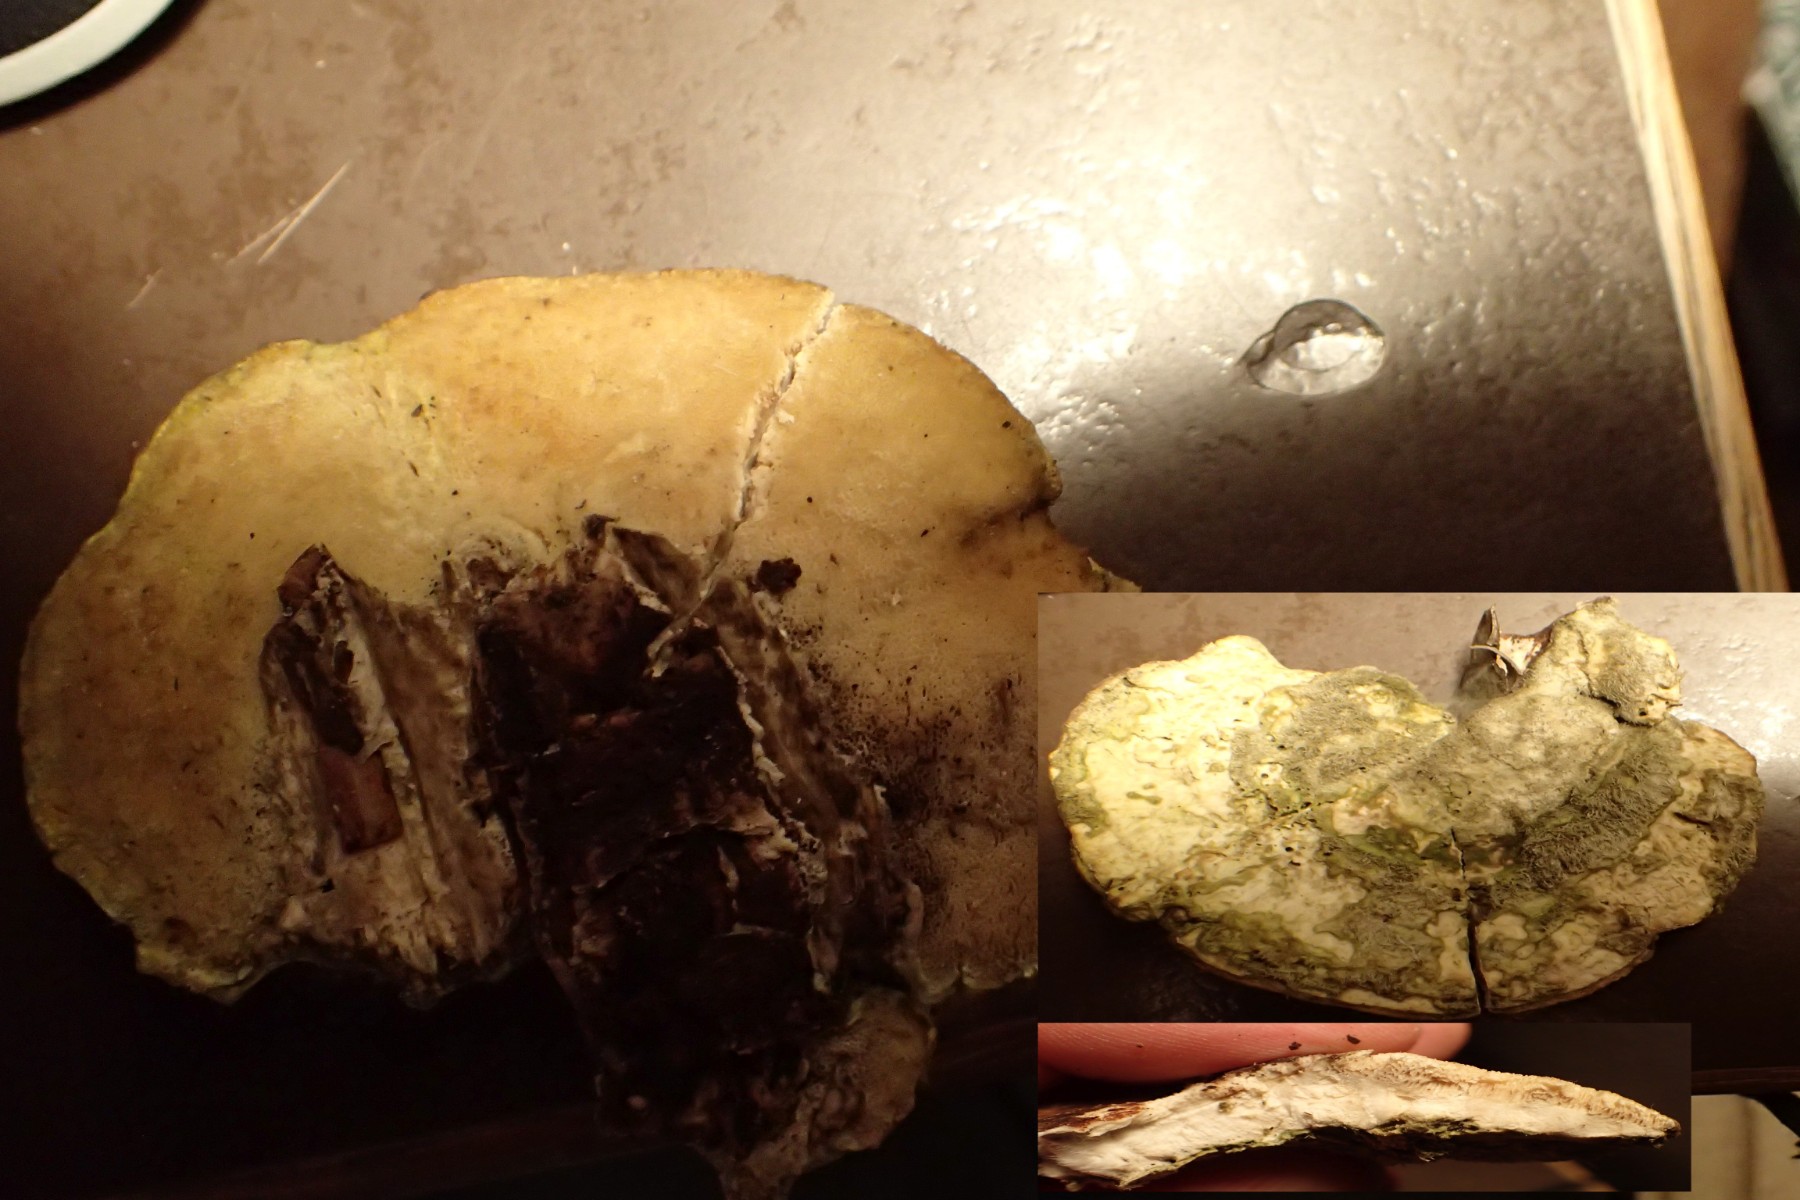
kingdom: Fungi
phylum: Basidiomycota
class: Agaricomycetes
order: Polyporales
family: Phanerochaetaceae
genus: Bjerkandera
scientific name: Bjerkandera fumosa
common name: grågul sodporesvamp
